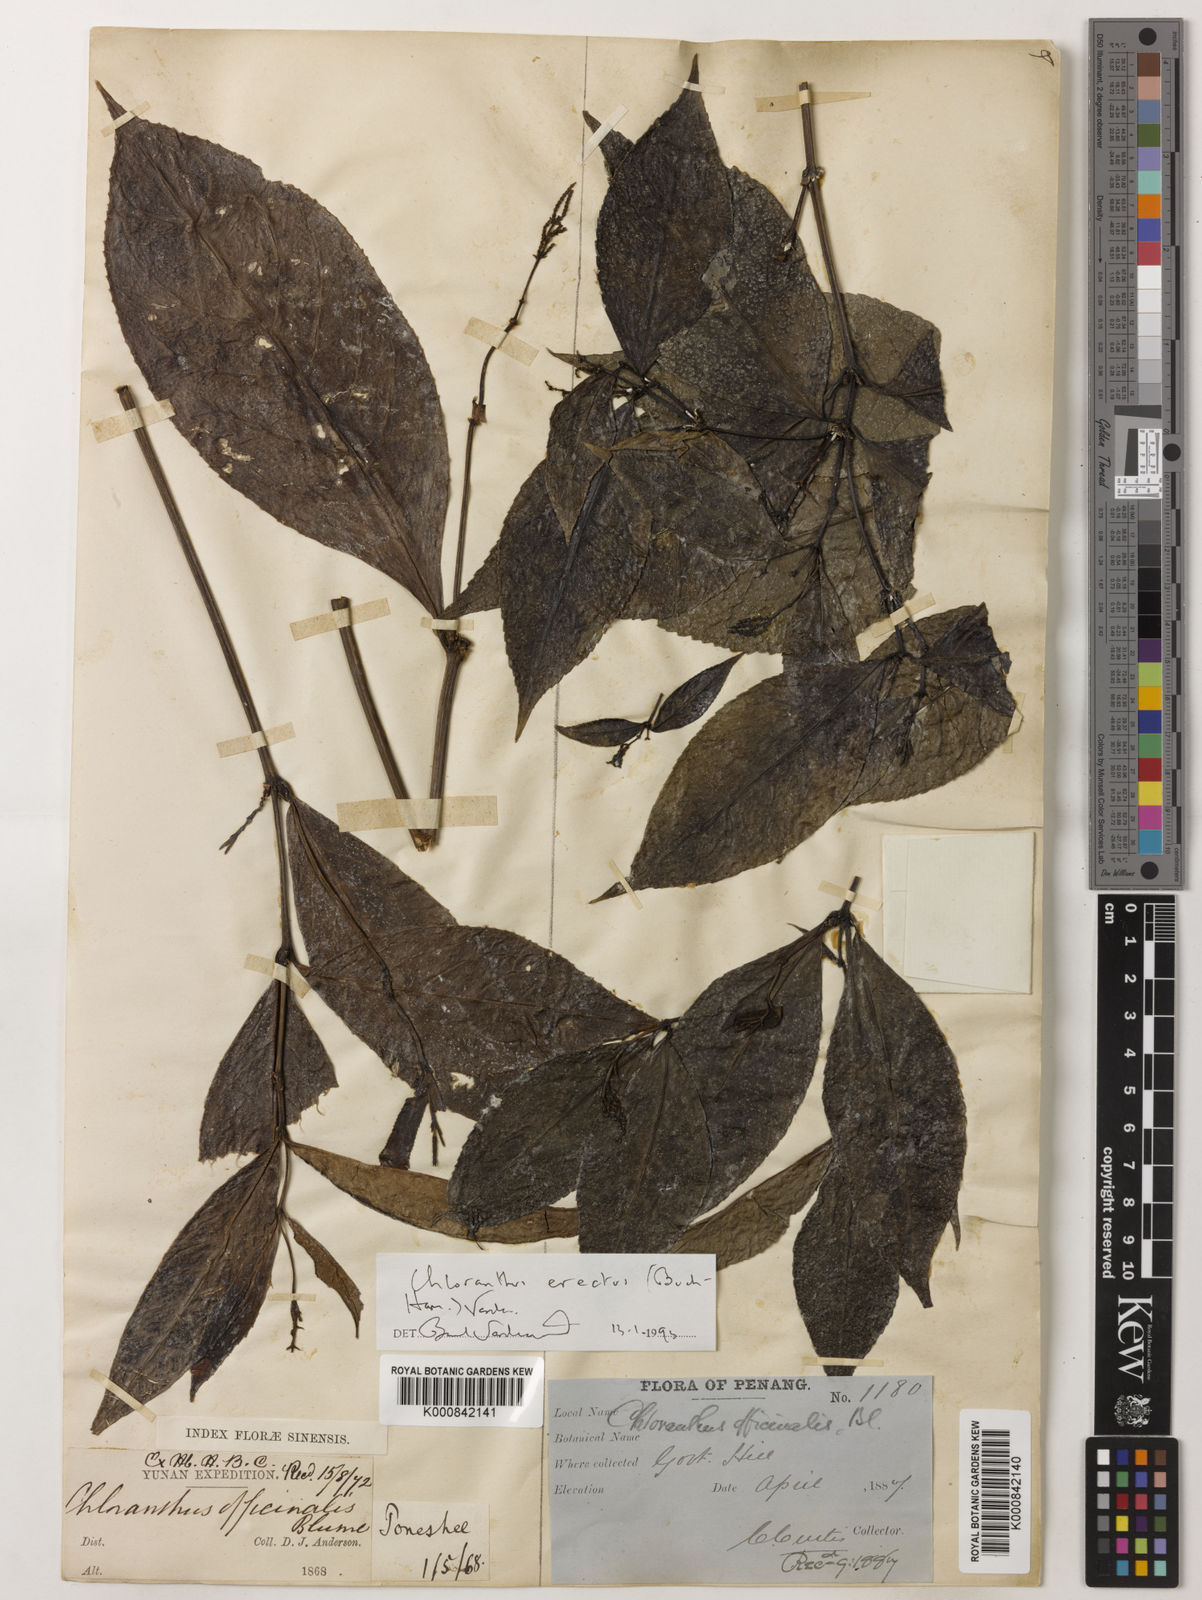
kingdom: Plantae
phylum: Tracheophyta
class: Magnoliopsida
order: Chloranthales
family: Chloranthaceae
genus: Chloranthus
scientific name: Chloranthus
